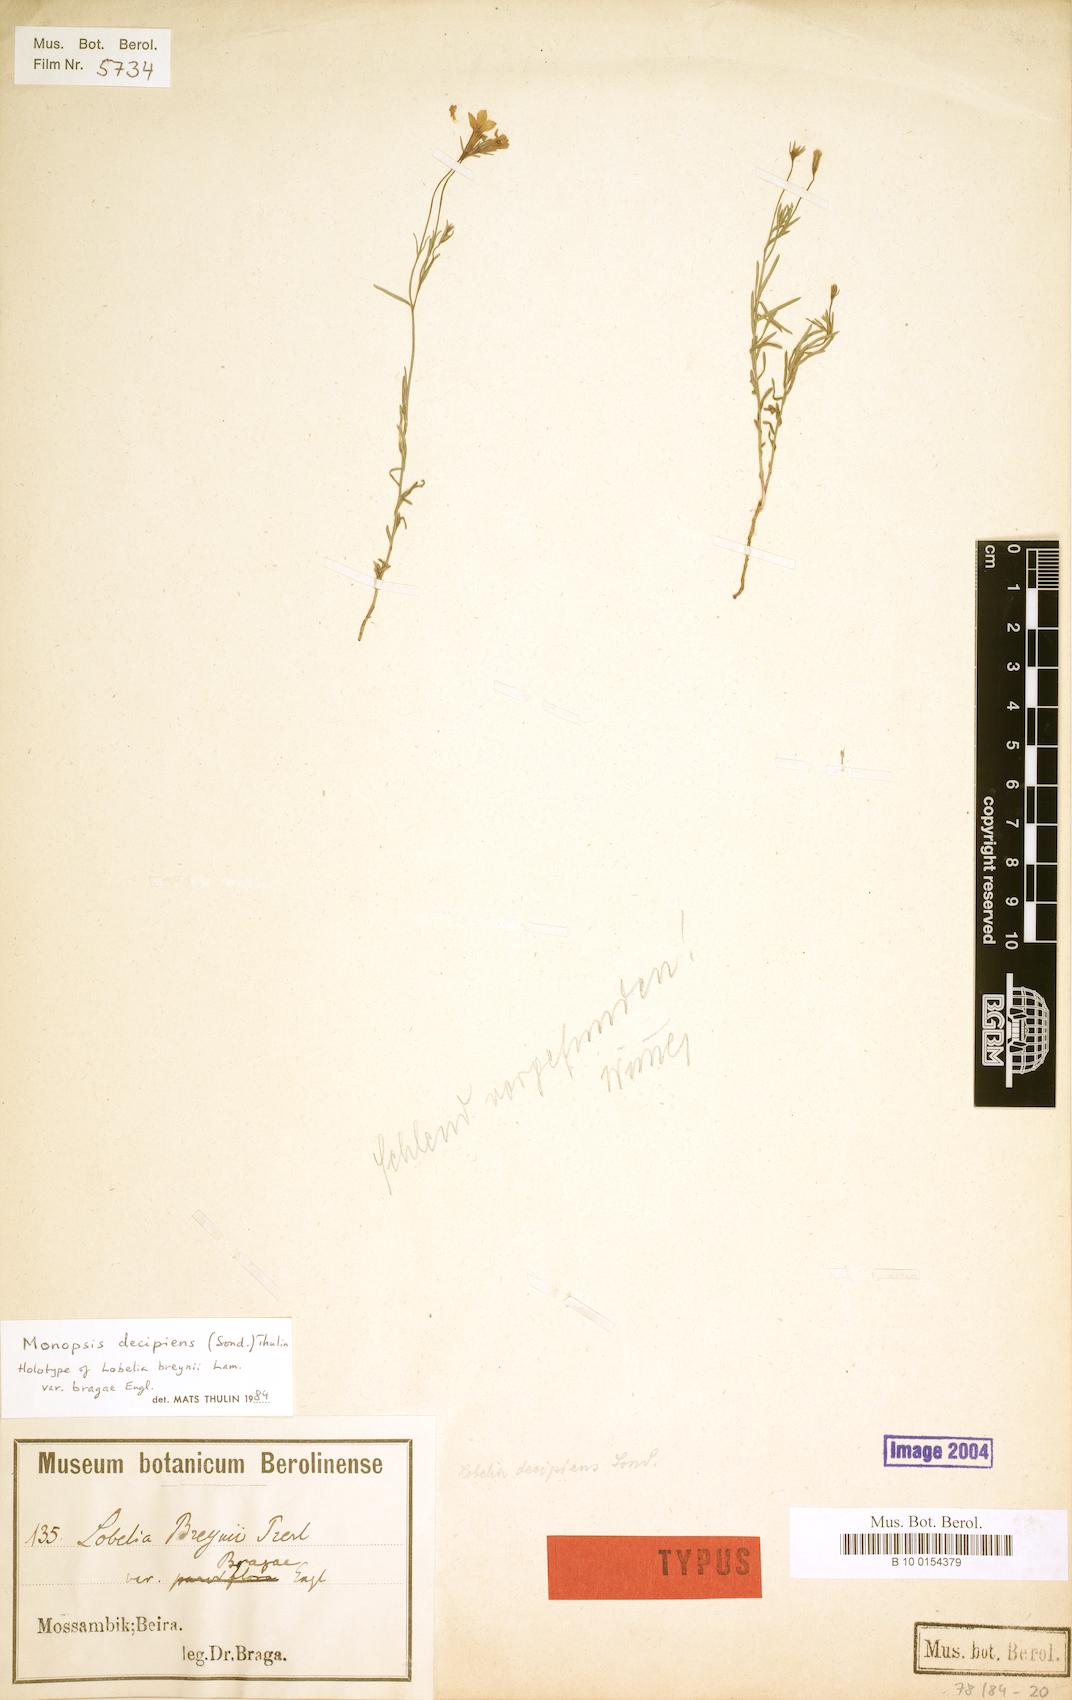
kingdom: Plantae
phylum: Tracheophyta
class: Magnoliopsida
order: Asterales
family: Campanulaceae
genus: Monopsis
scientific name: Monopsis decipiens
